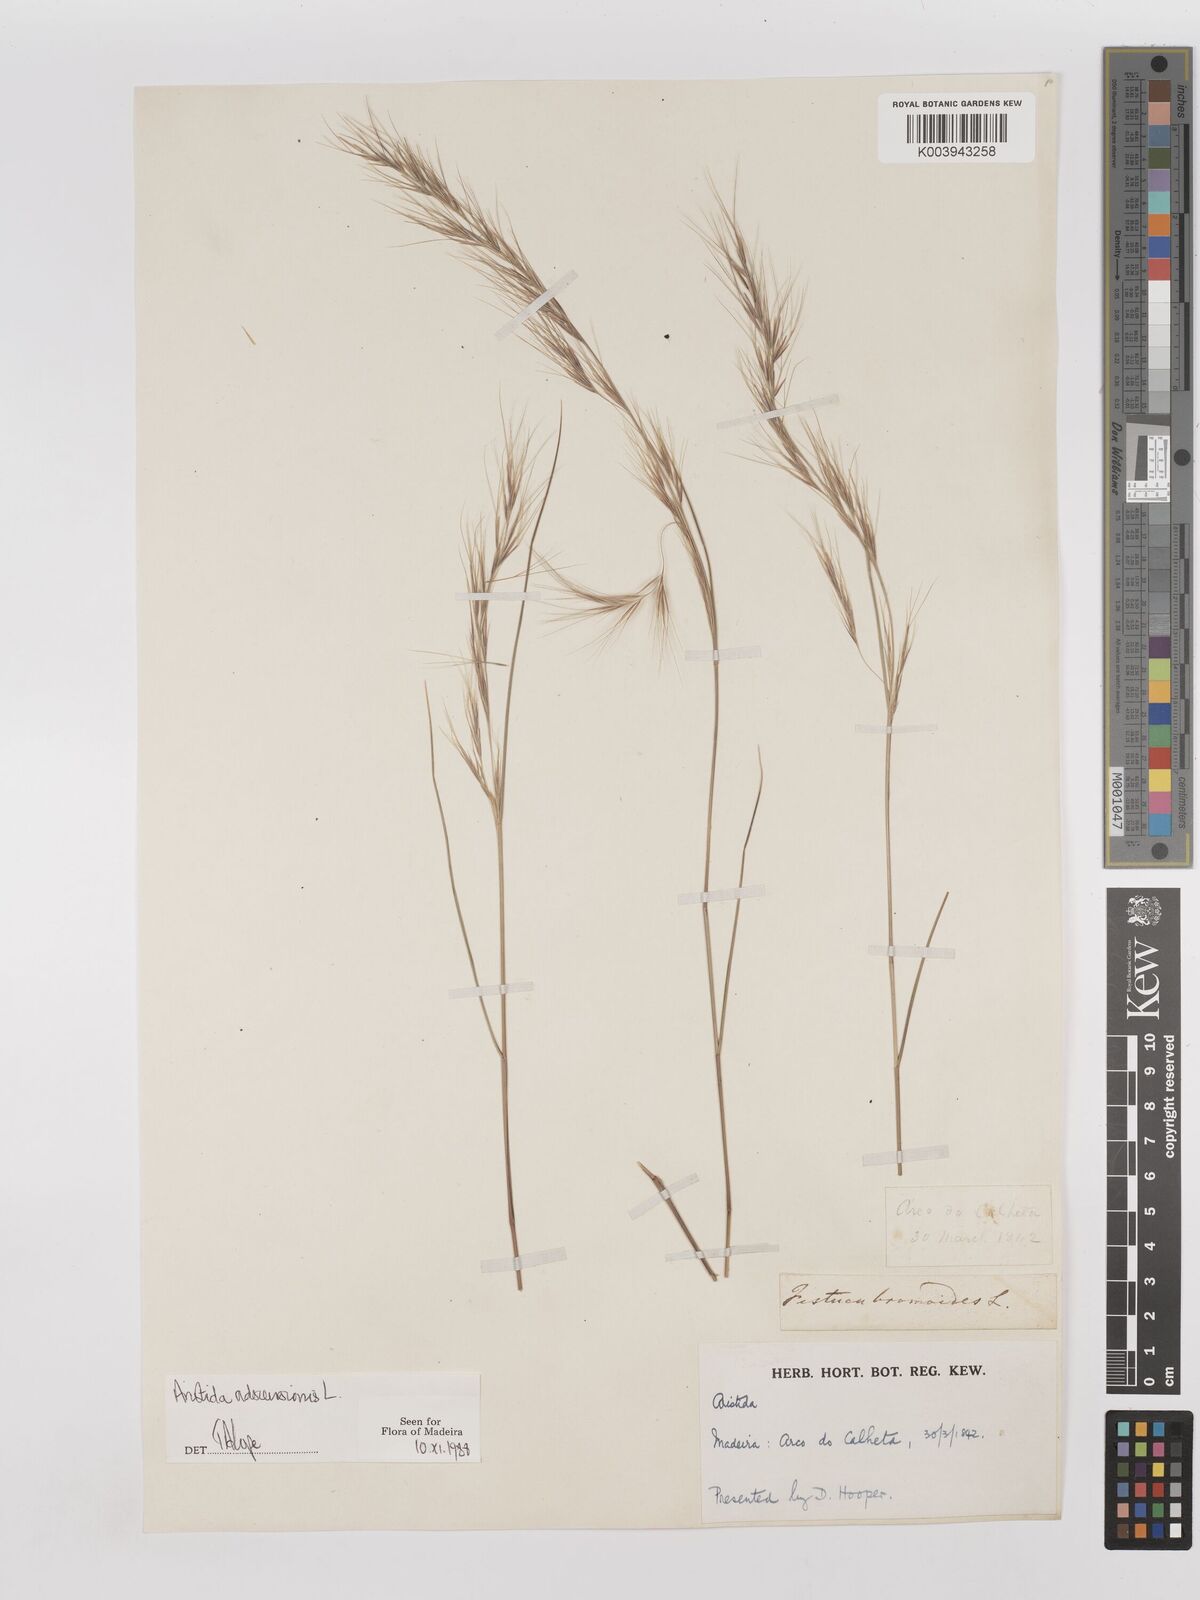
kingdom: Plantae
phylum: Tracheophyta
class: Liliopsida
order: Poales
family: Poaceae
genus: Aristida
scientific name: Aristida adscensionis
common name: Sixweeks threeawn
